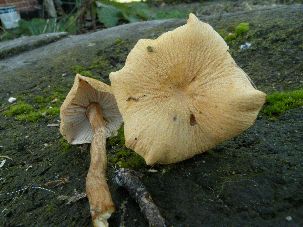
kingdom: Fungi
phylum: Basidiomycota
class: Agaricomycetes
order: Agaricales
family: Tricholomataceae
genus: Cystoderma
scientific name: Cystoderma
